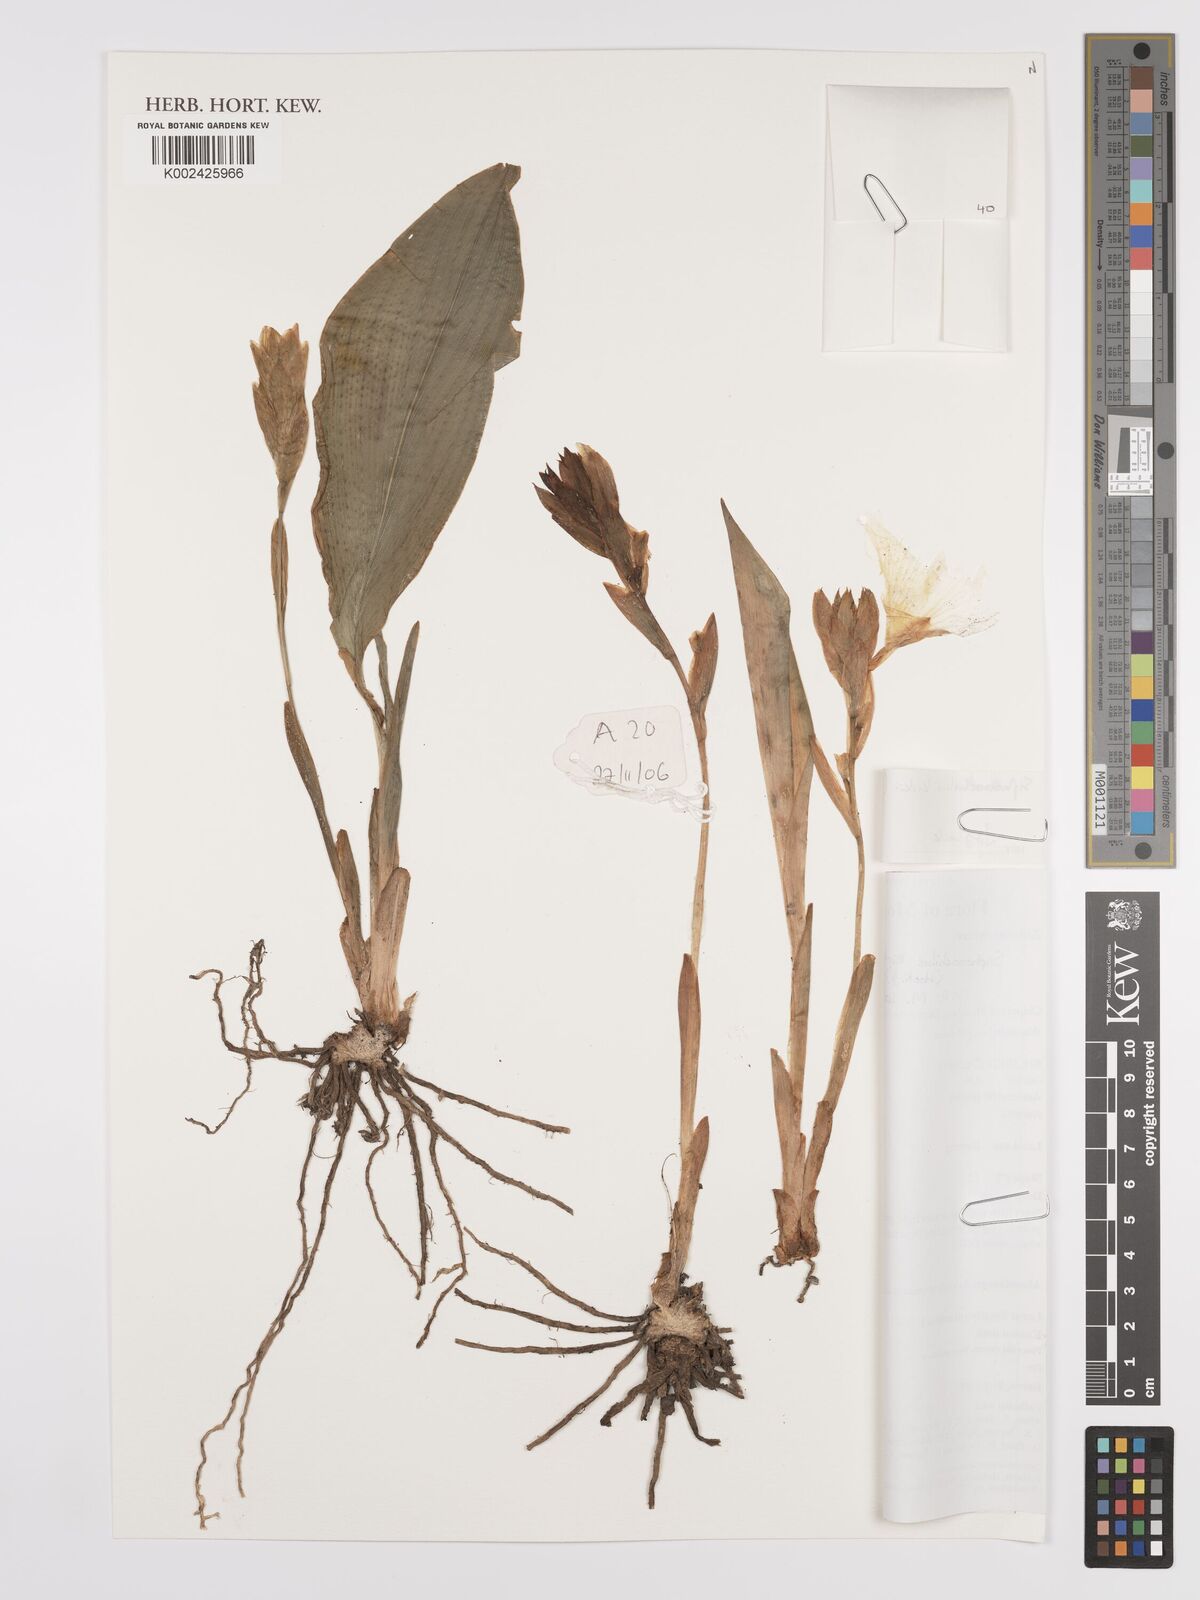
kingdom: Plantae
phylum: Tracheophyta
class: Liliopsida
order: Zingiberales
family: Zingiberaceae
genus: Siphonochilus
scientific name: Siphonochilus kirkii
